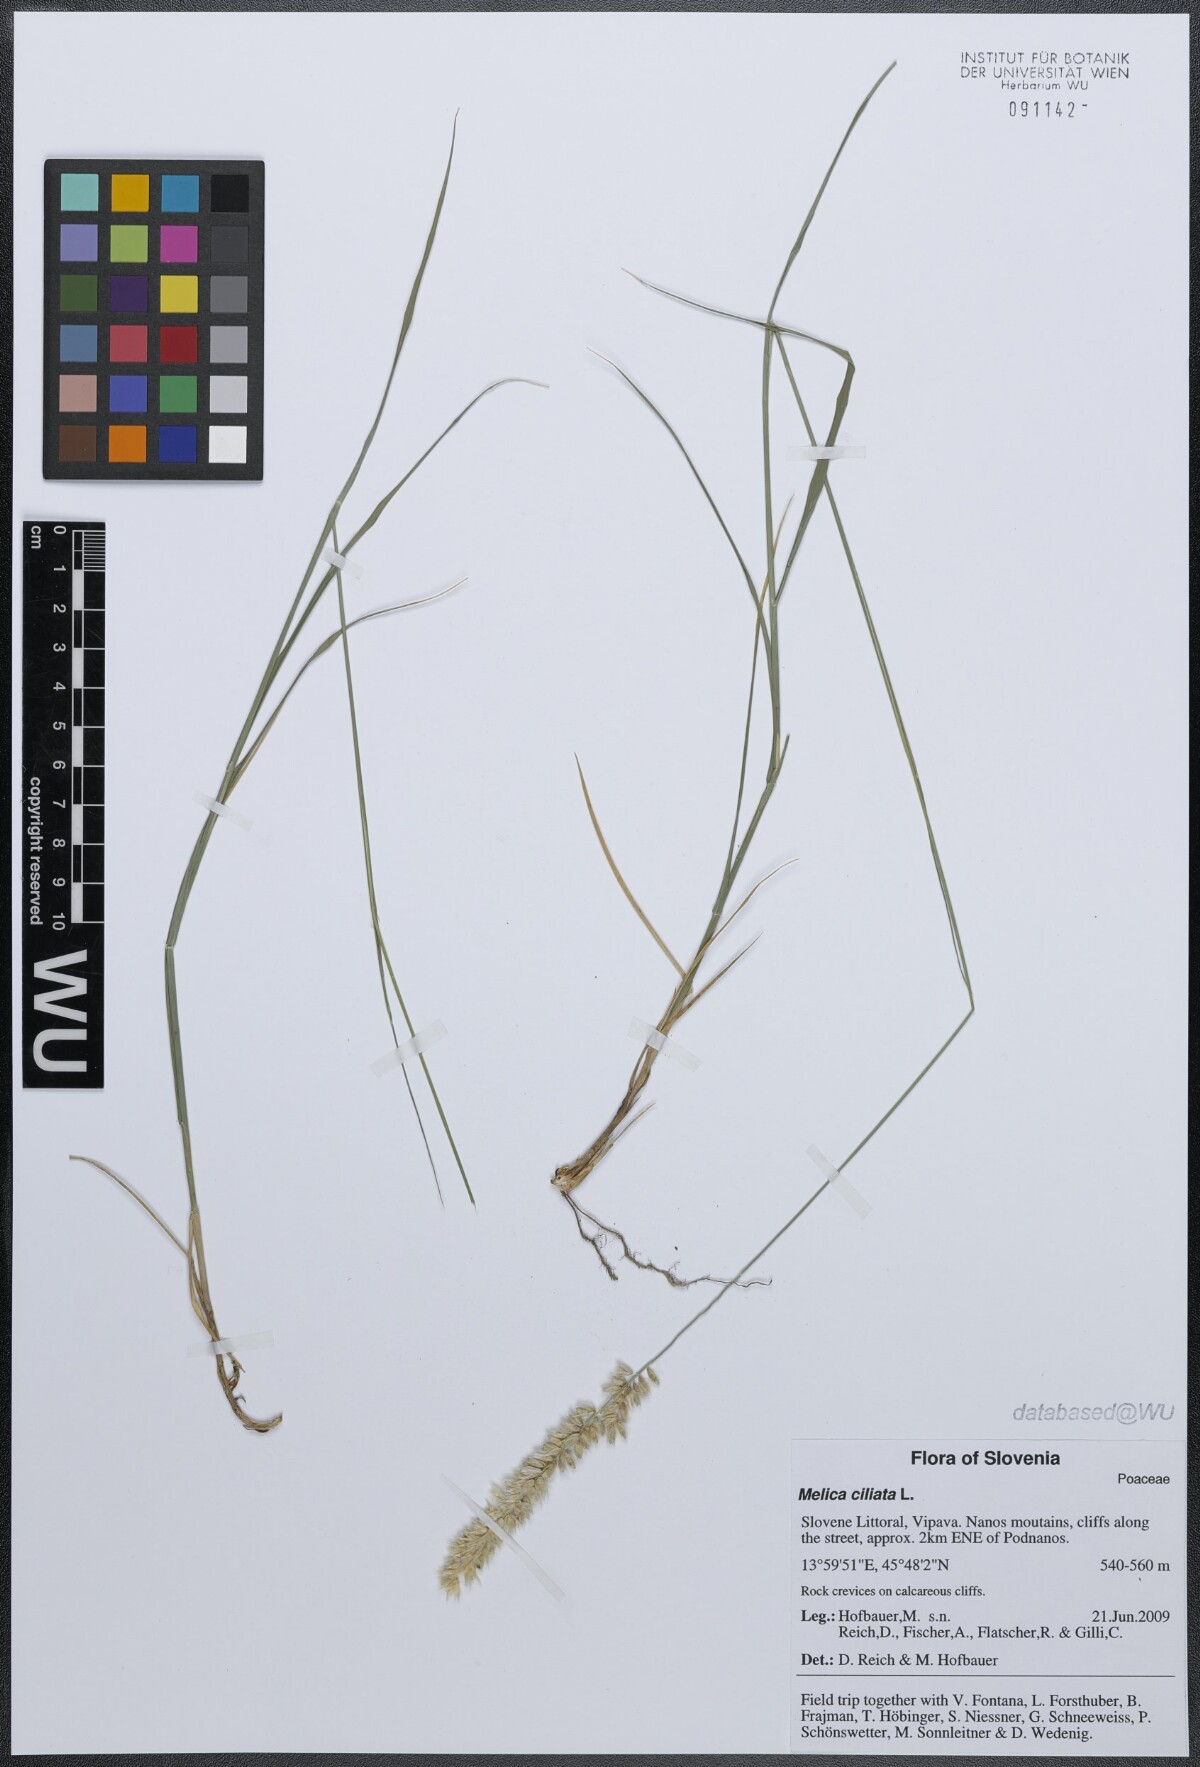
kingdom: Plantae
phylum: Tracheophyta
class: Liliopsida
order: Poales
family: Poaceae
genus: Melica
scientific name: Melica ciliata
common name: Hairy melicgrass
